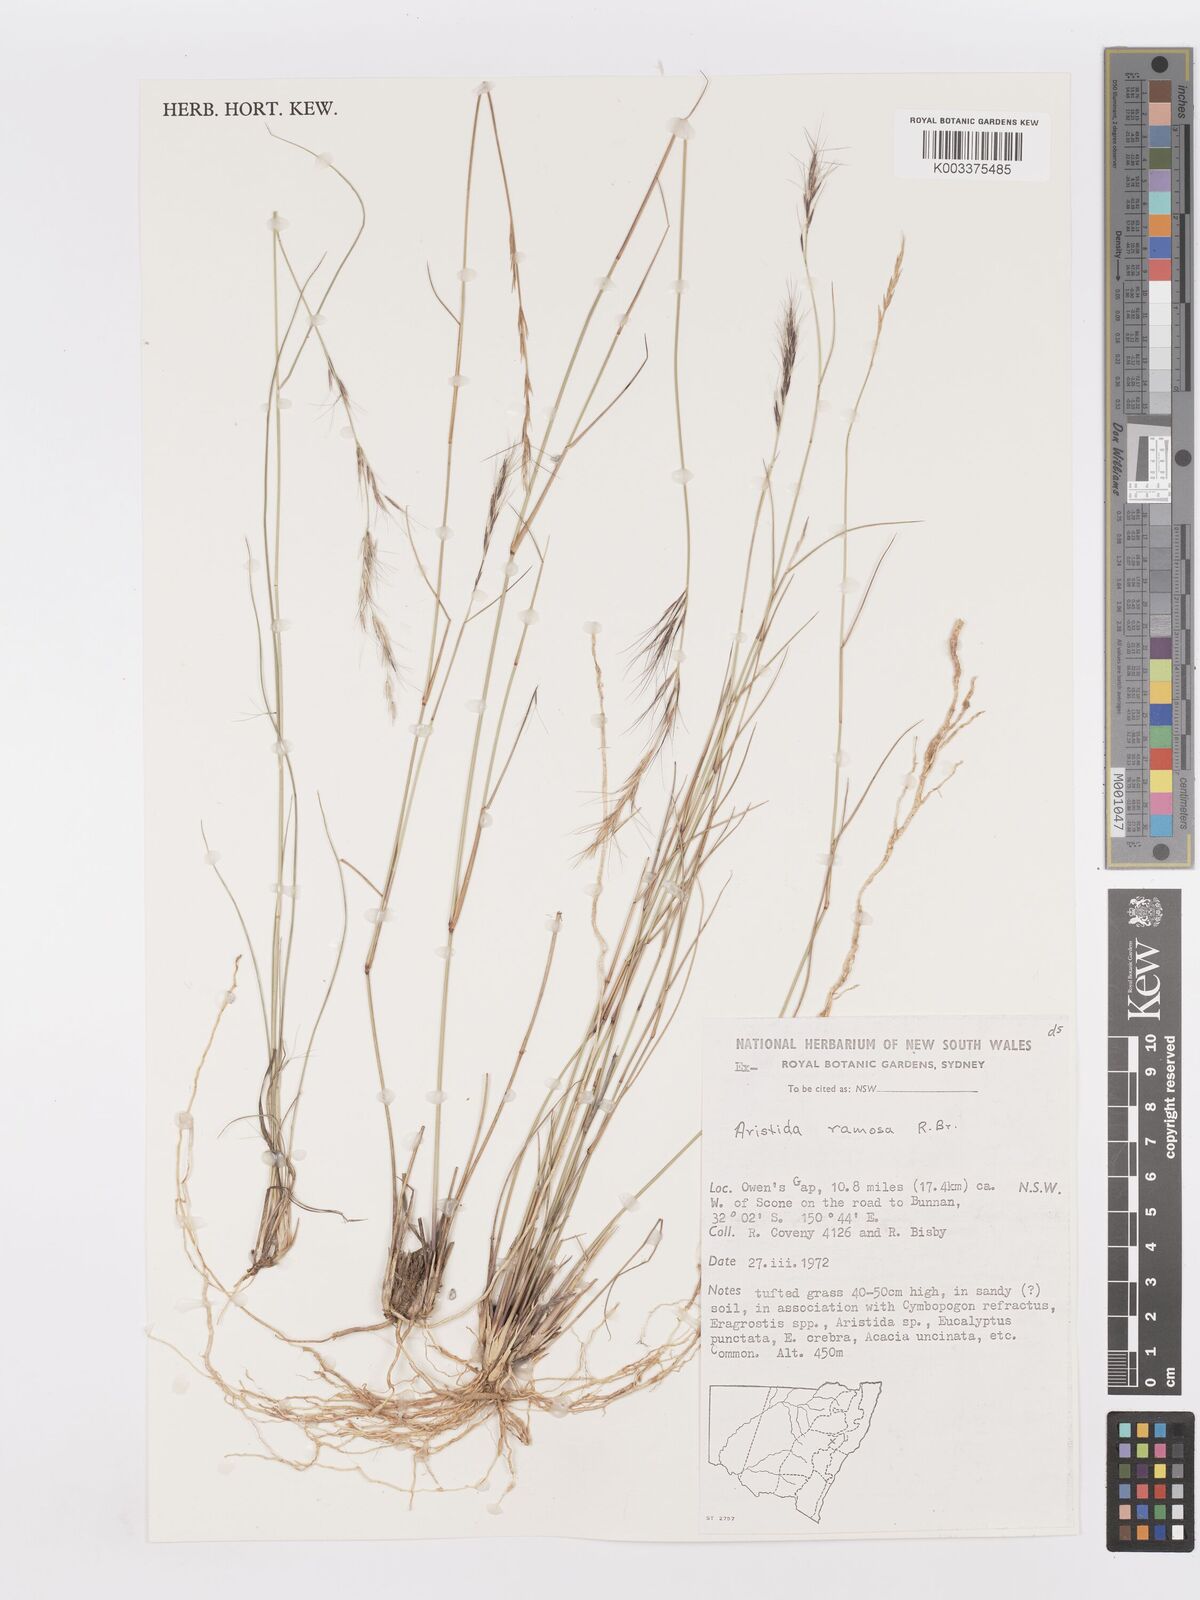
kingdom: Plantae
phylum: Tracheophyta
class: Liliopsida
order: Poales
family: Poaceae
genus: Aristida
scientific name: Aristida ramosa
